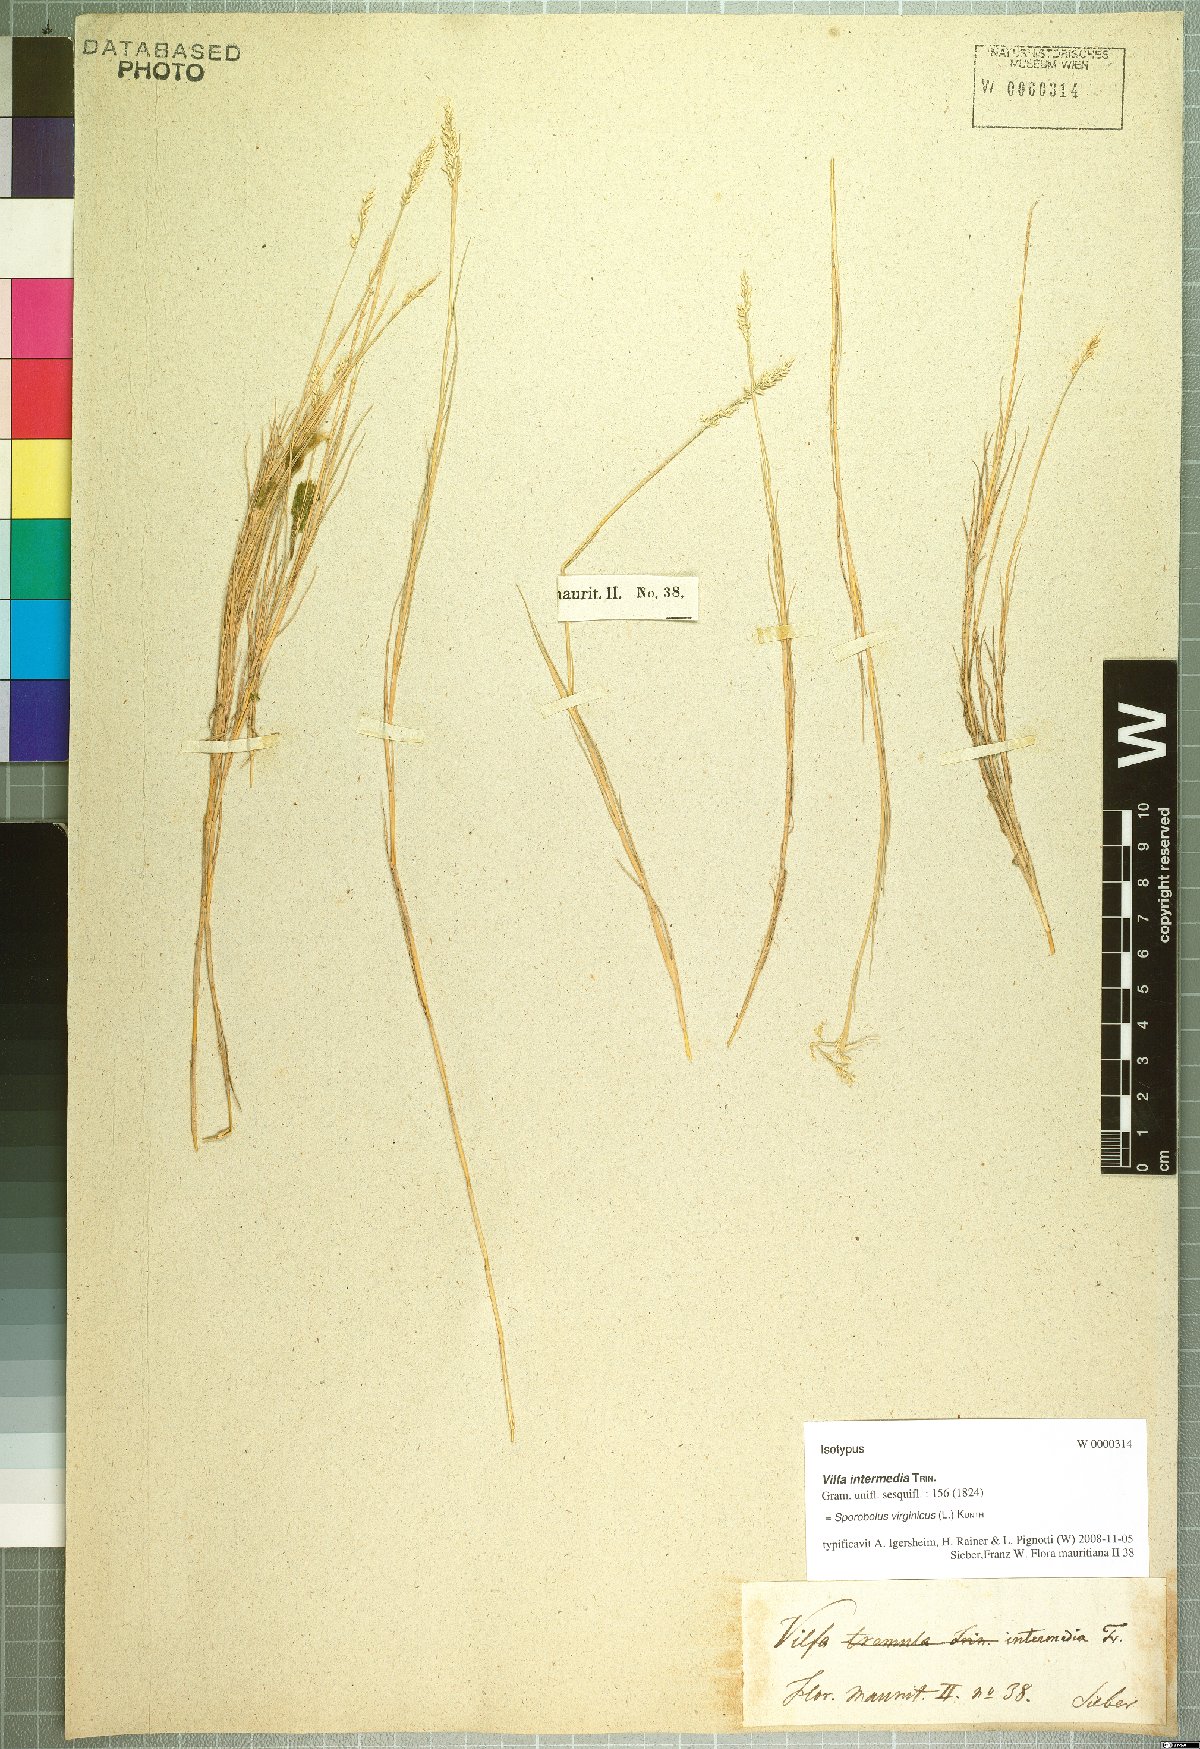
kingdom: Plantae
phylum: Tracheophyta
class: Liliopsida
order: Poales
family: Poaceae
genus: Sporobolus
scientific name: Sporobolus virginicus
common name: Beach dropseed
